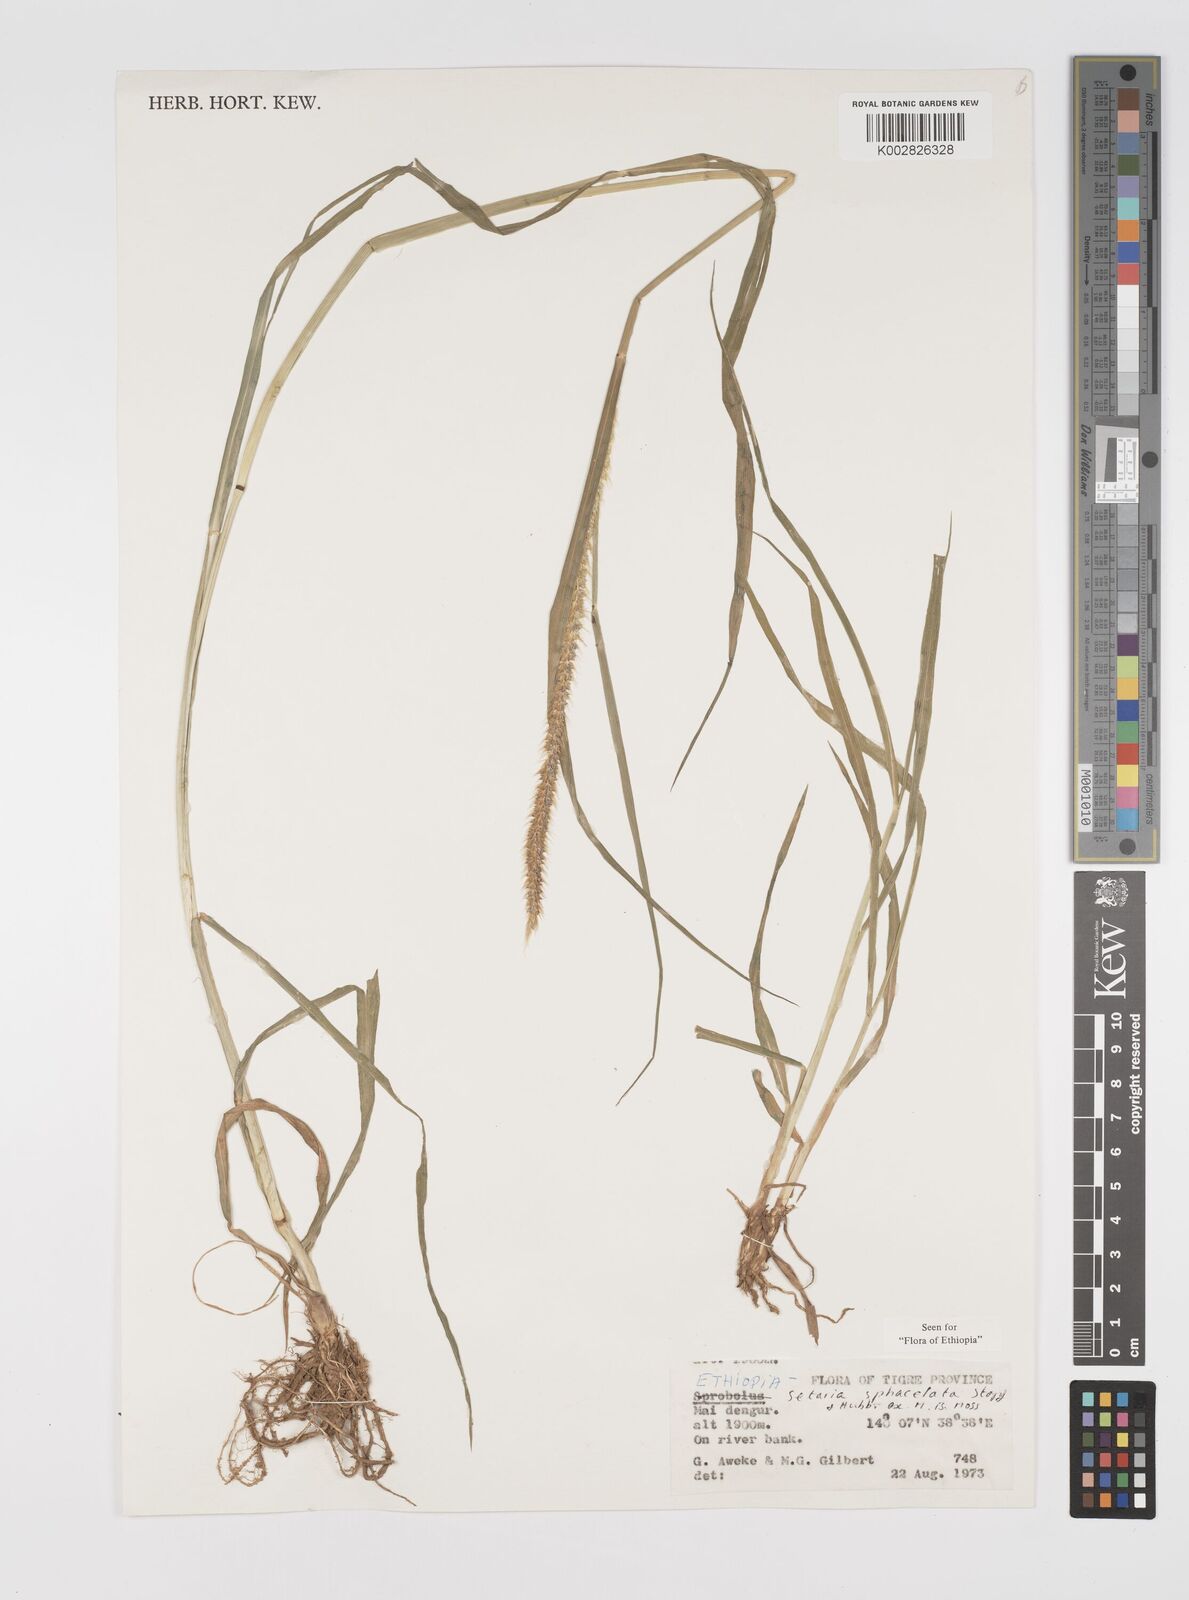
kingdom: Plantae
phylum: Tracheophyta
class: Liliopsida
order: Poales
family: Poaceae
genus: Setaria
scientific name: Setaria sphacelata
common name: African bristlegrass
